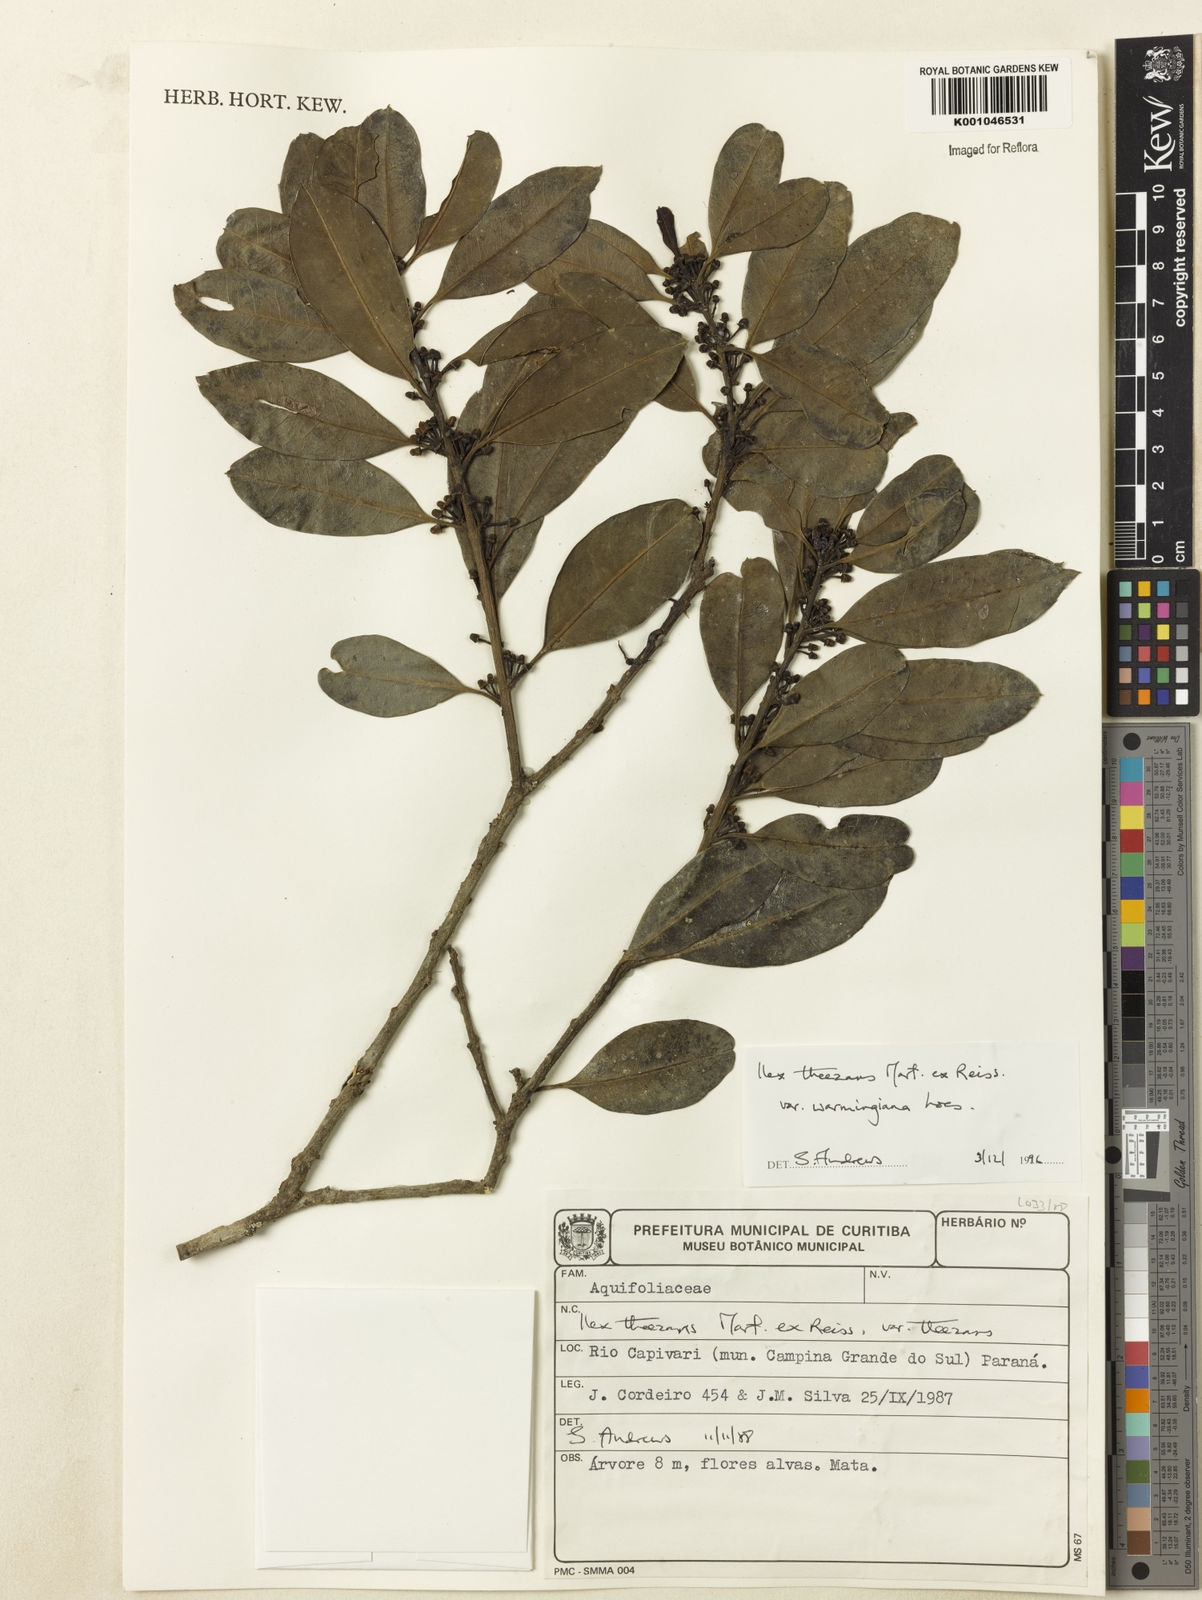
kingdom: Plantae
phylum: Tracheophyta
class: Magnoliopsida
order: Aquifoliales
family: Aquifoliaceae
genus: Ilex
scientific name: Ilex theezans
